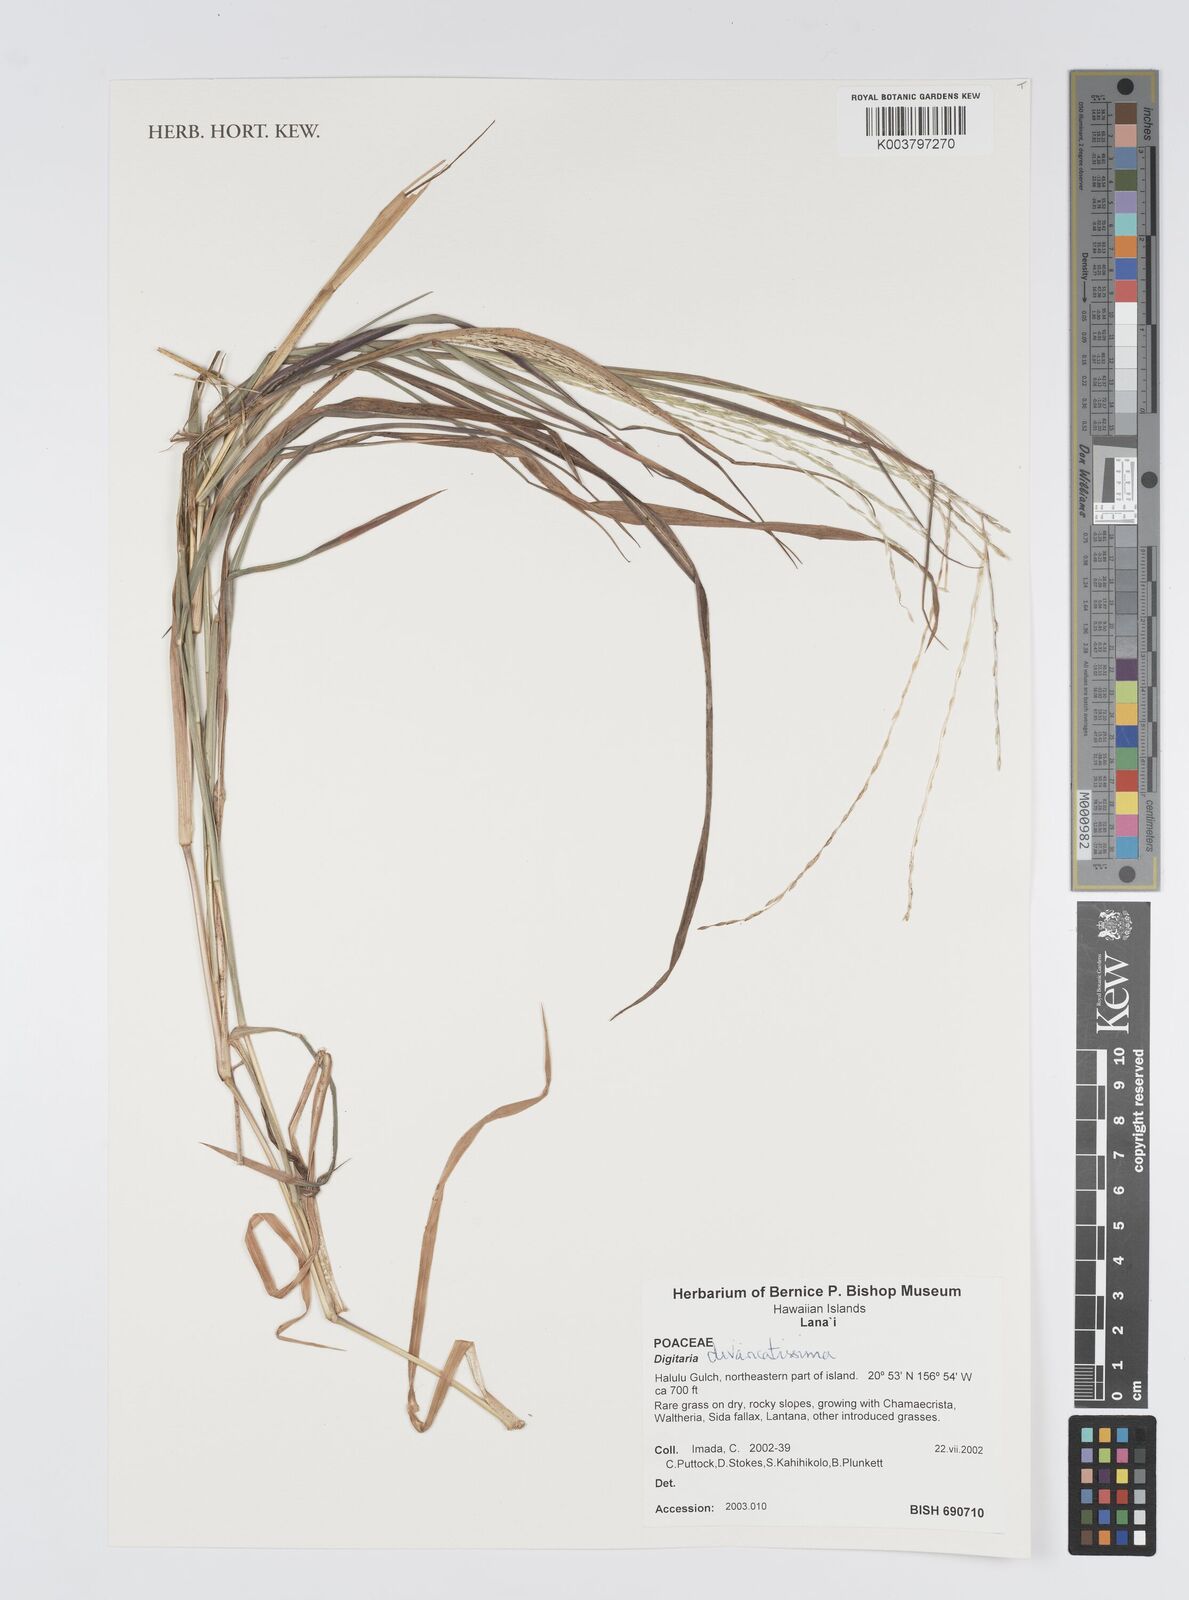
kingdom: Plantae
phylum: Tracheophyta
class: Liliopsida
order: Poales
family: Poaceae
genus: Digitaria
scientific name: Digitaria divaricatissima
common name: Crabgrass
